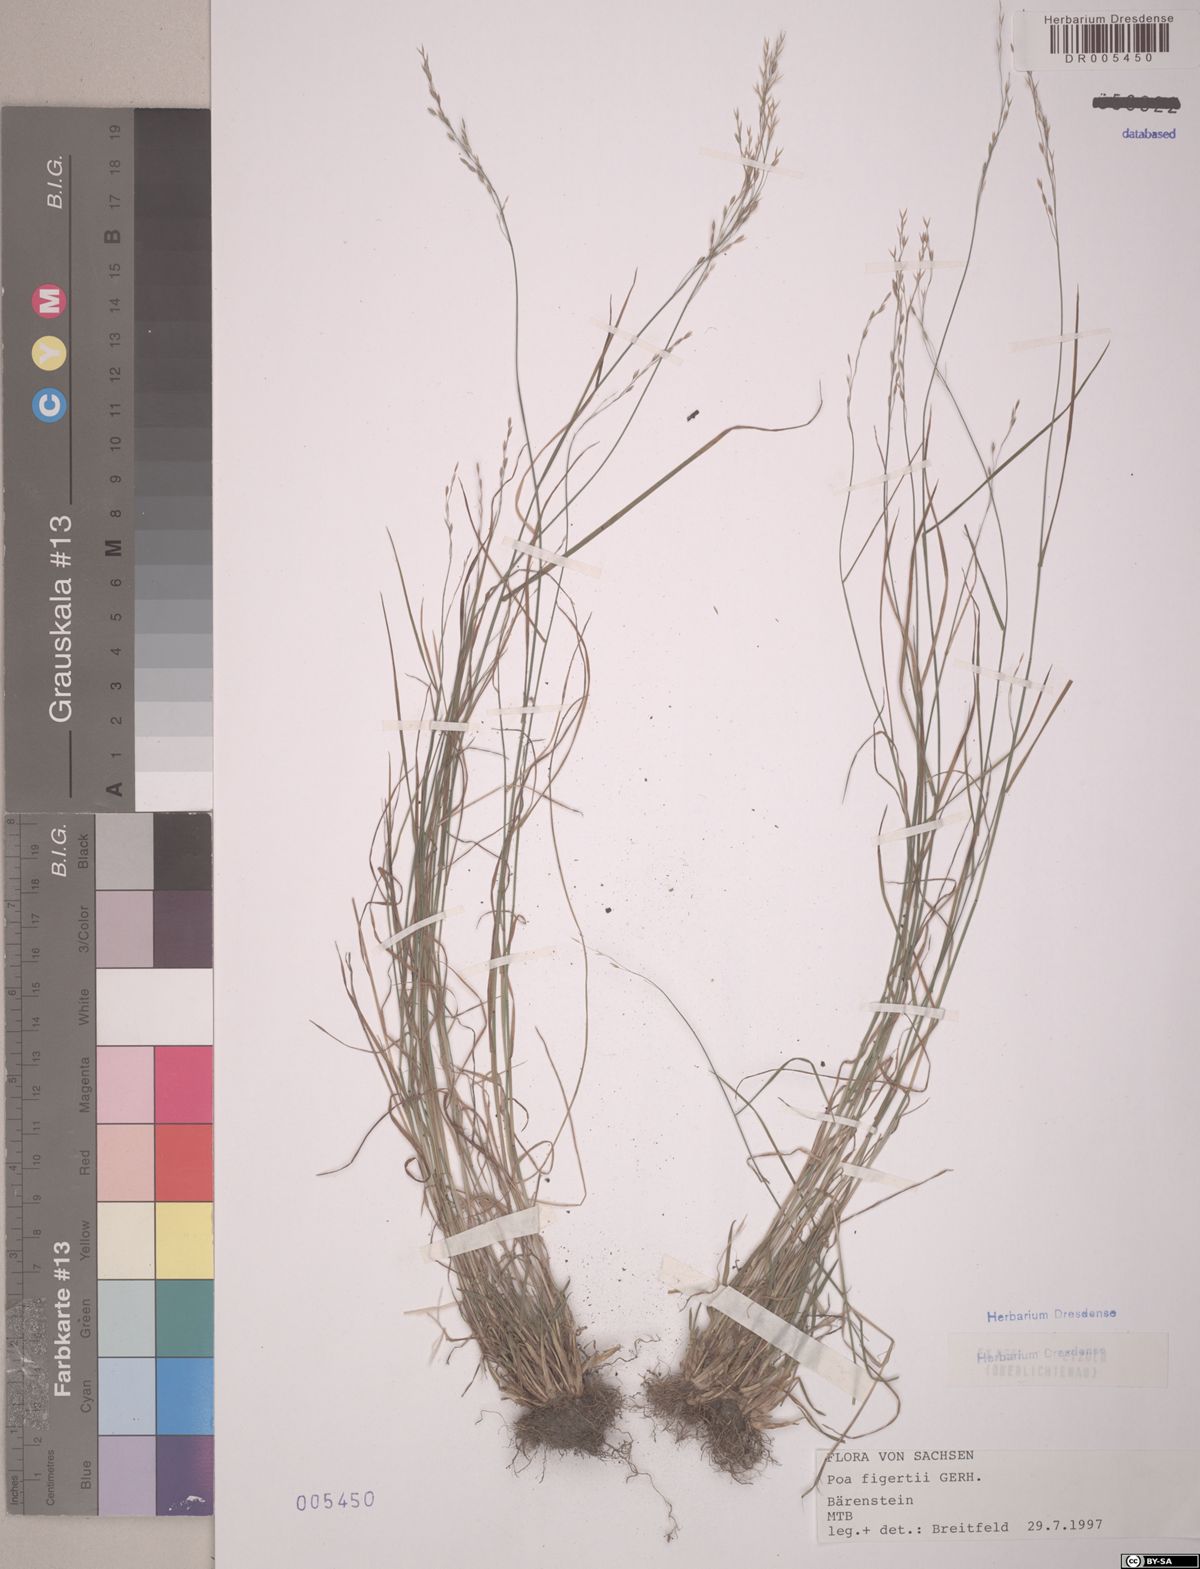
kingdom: Plantae
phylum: Tracheophyta
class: Liliopsida
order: Poales
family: Poaceae
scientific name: Poaceae
